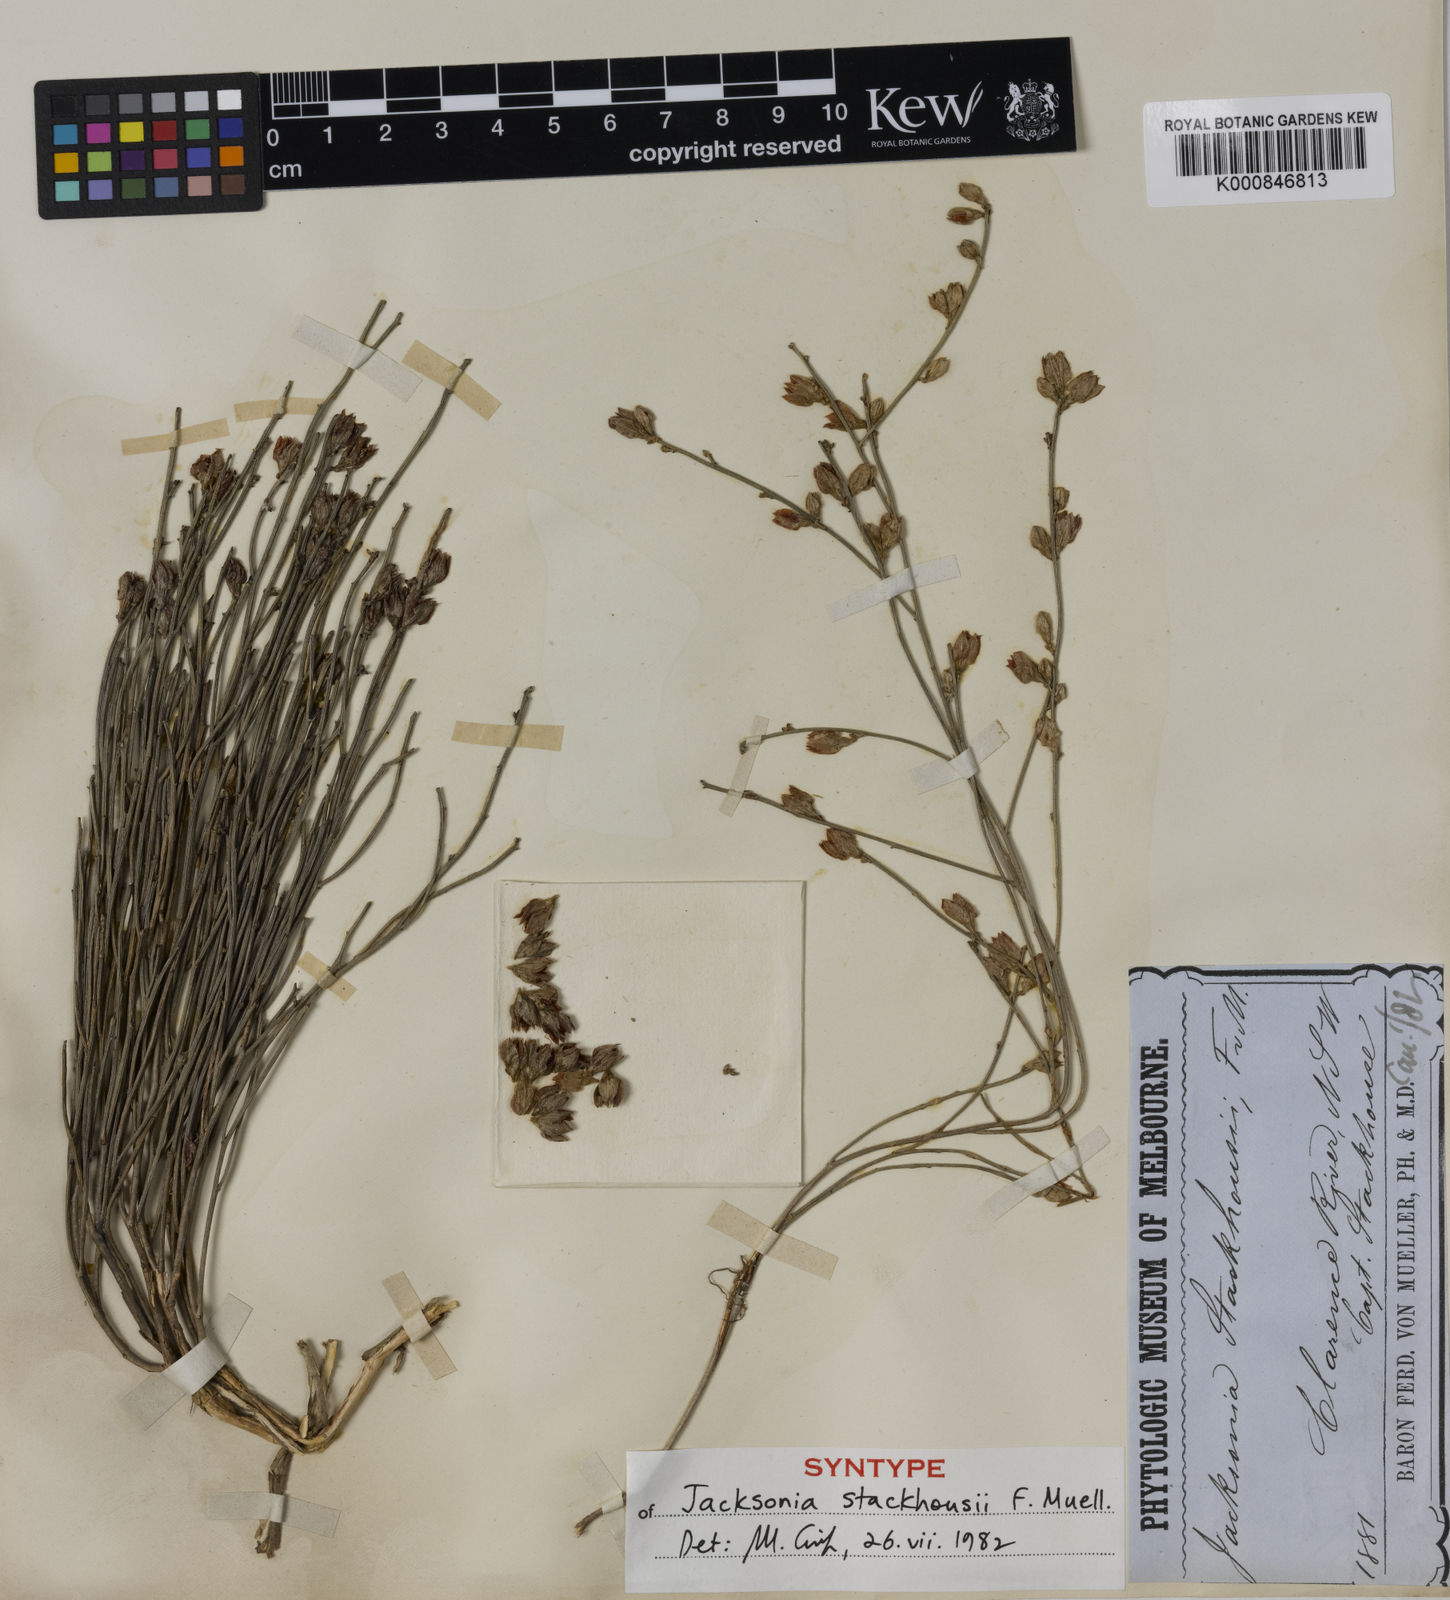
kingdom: Plantae
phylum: Tracheophyta
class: Magnoliopsida
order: Fabales
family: Fabaceae
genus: Jacksonia
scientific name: Jacksonia stackhousei
